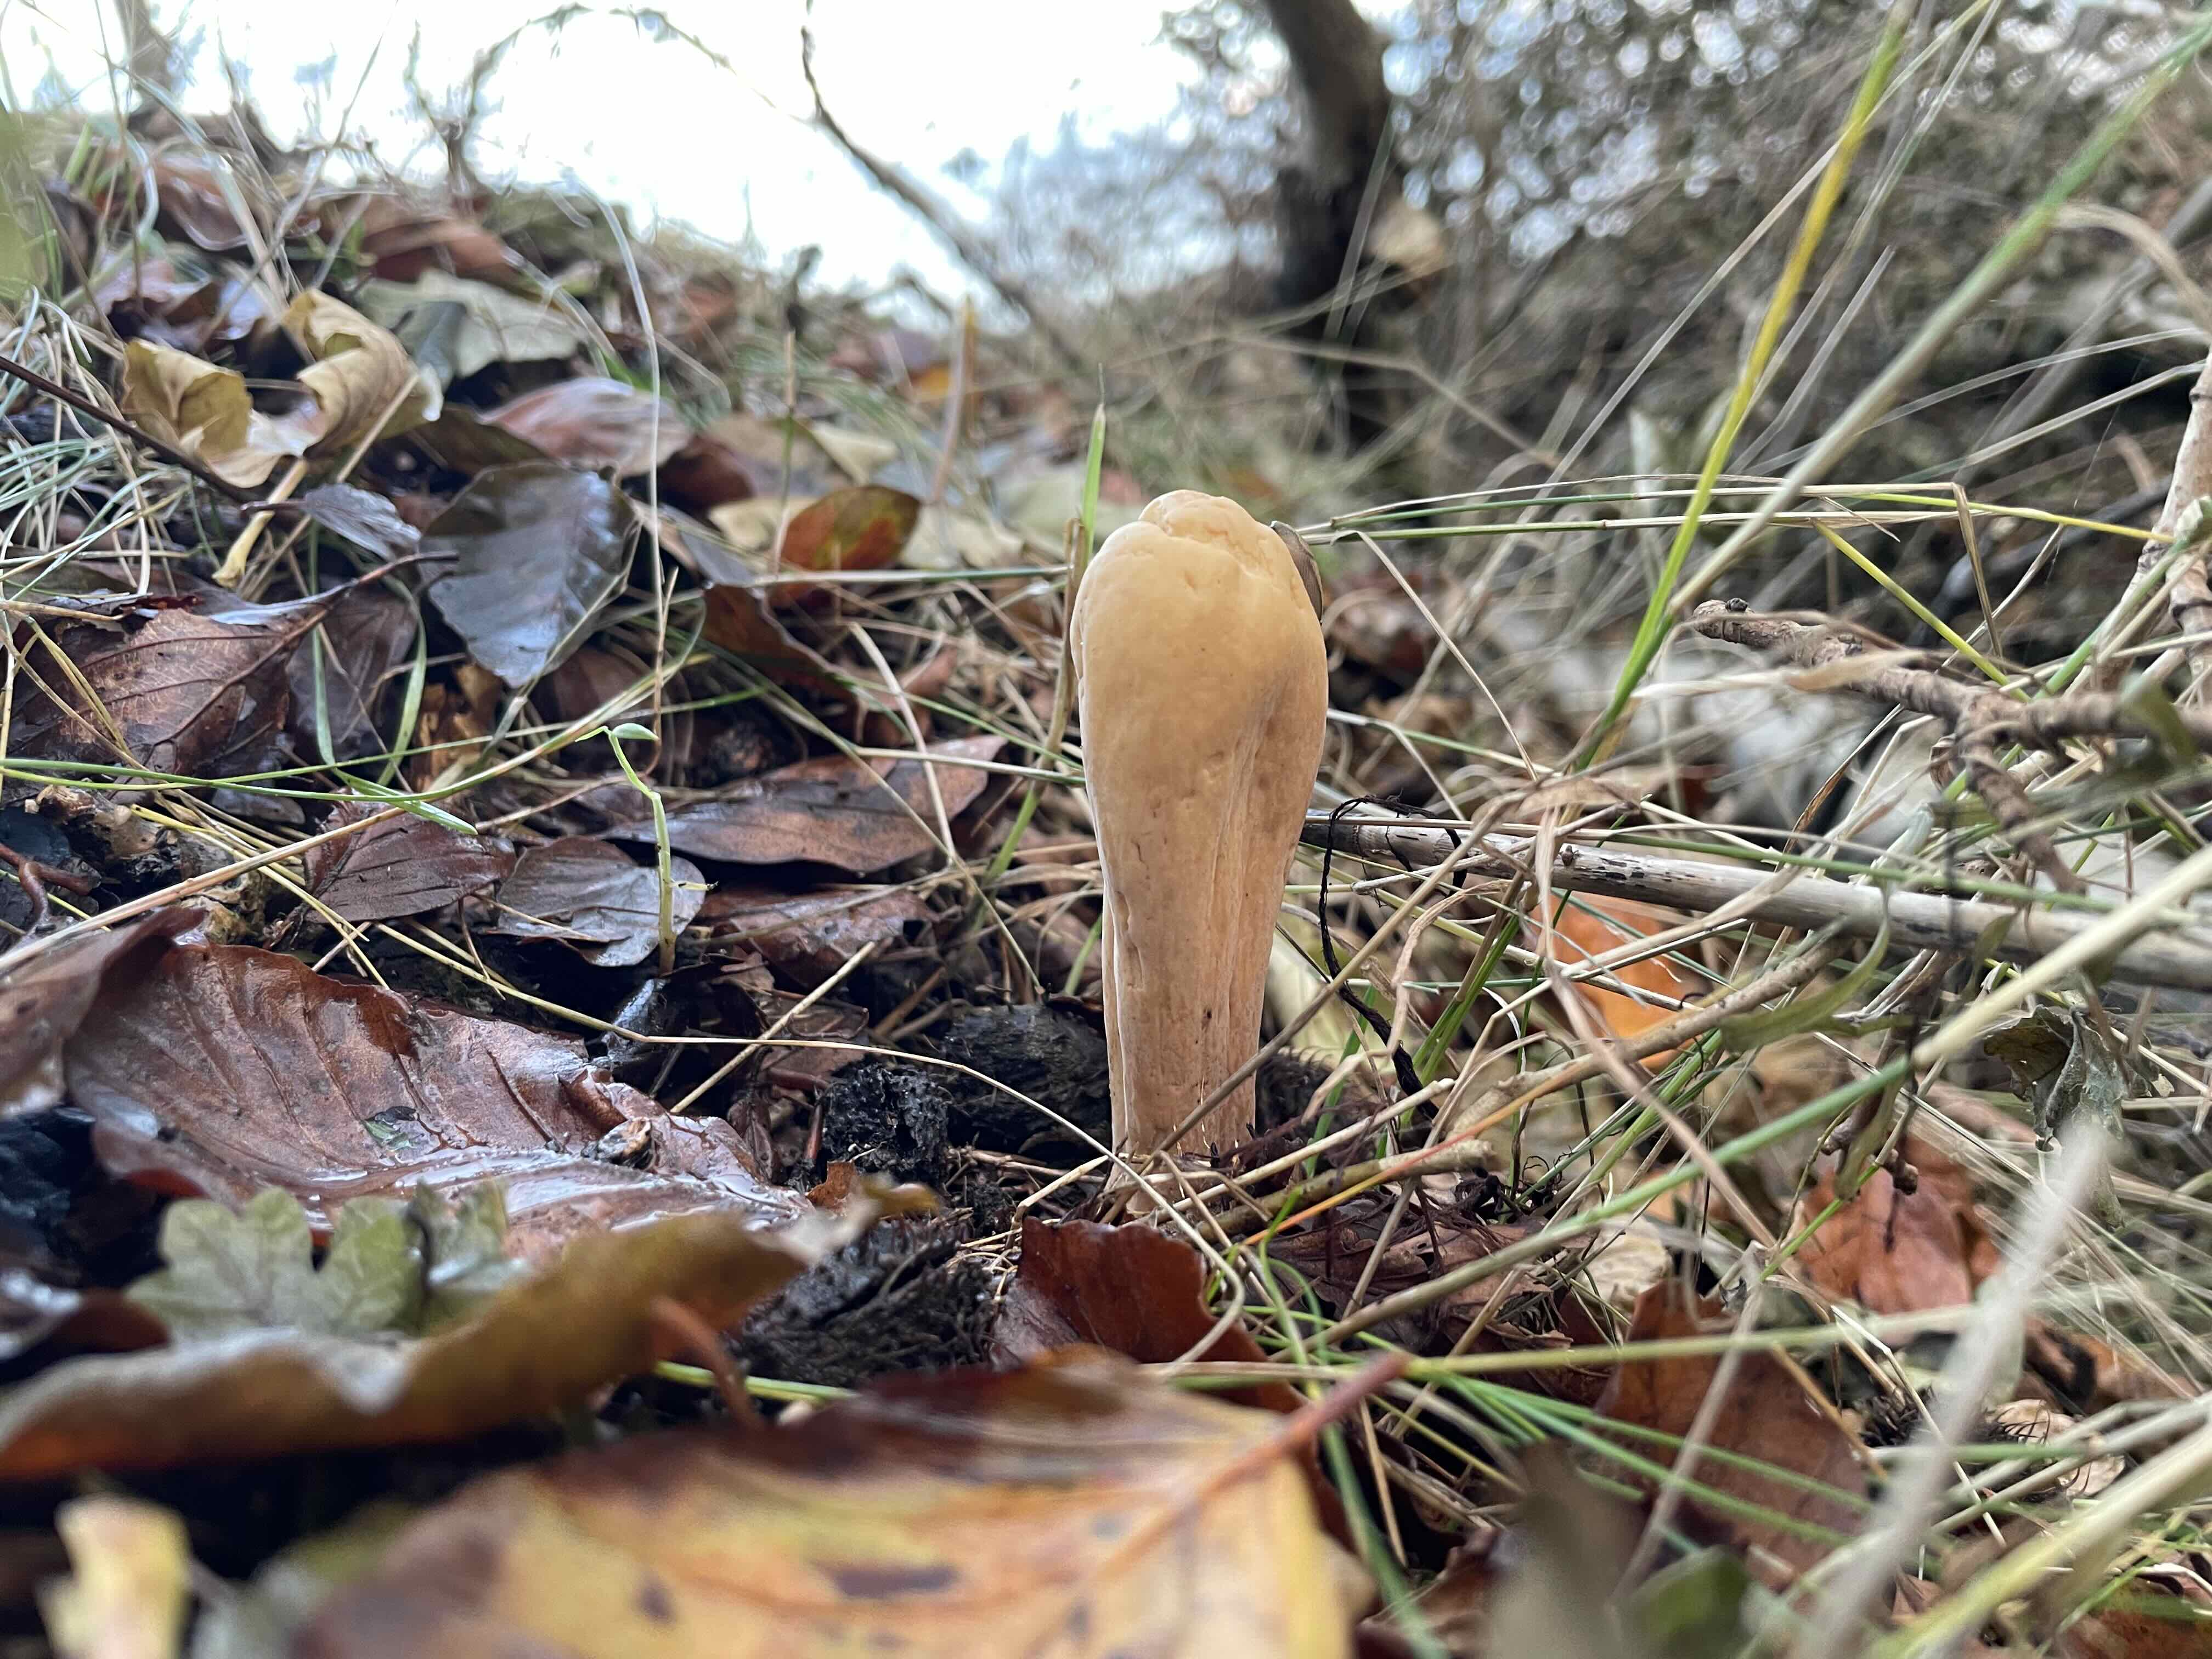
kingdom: Fungi
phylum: Basidiomycota
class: Agaricomycetes
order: Gomphales
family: Clavariadelphaceae
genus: Clavariadelphus
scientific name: Clavariadelphus pistillaris
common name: herkules-kæmpekølle
